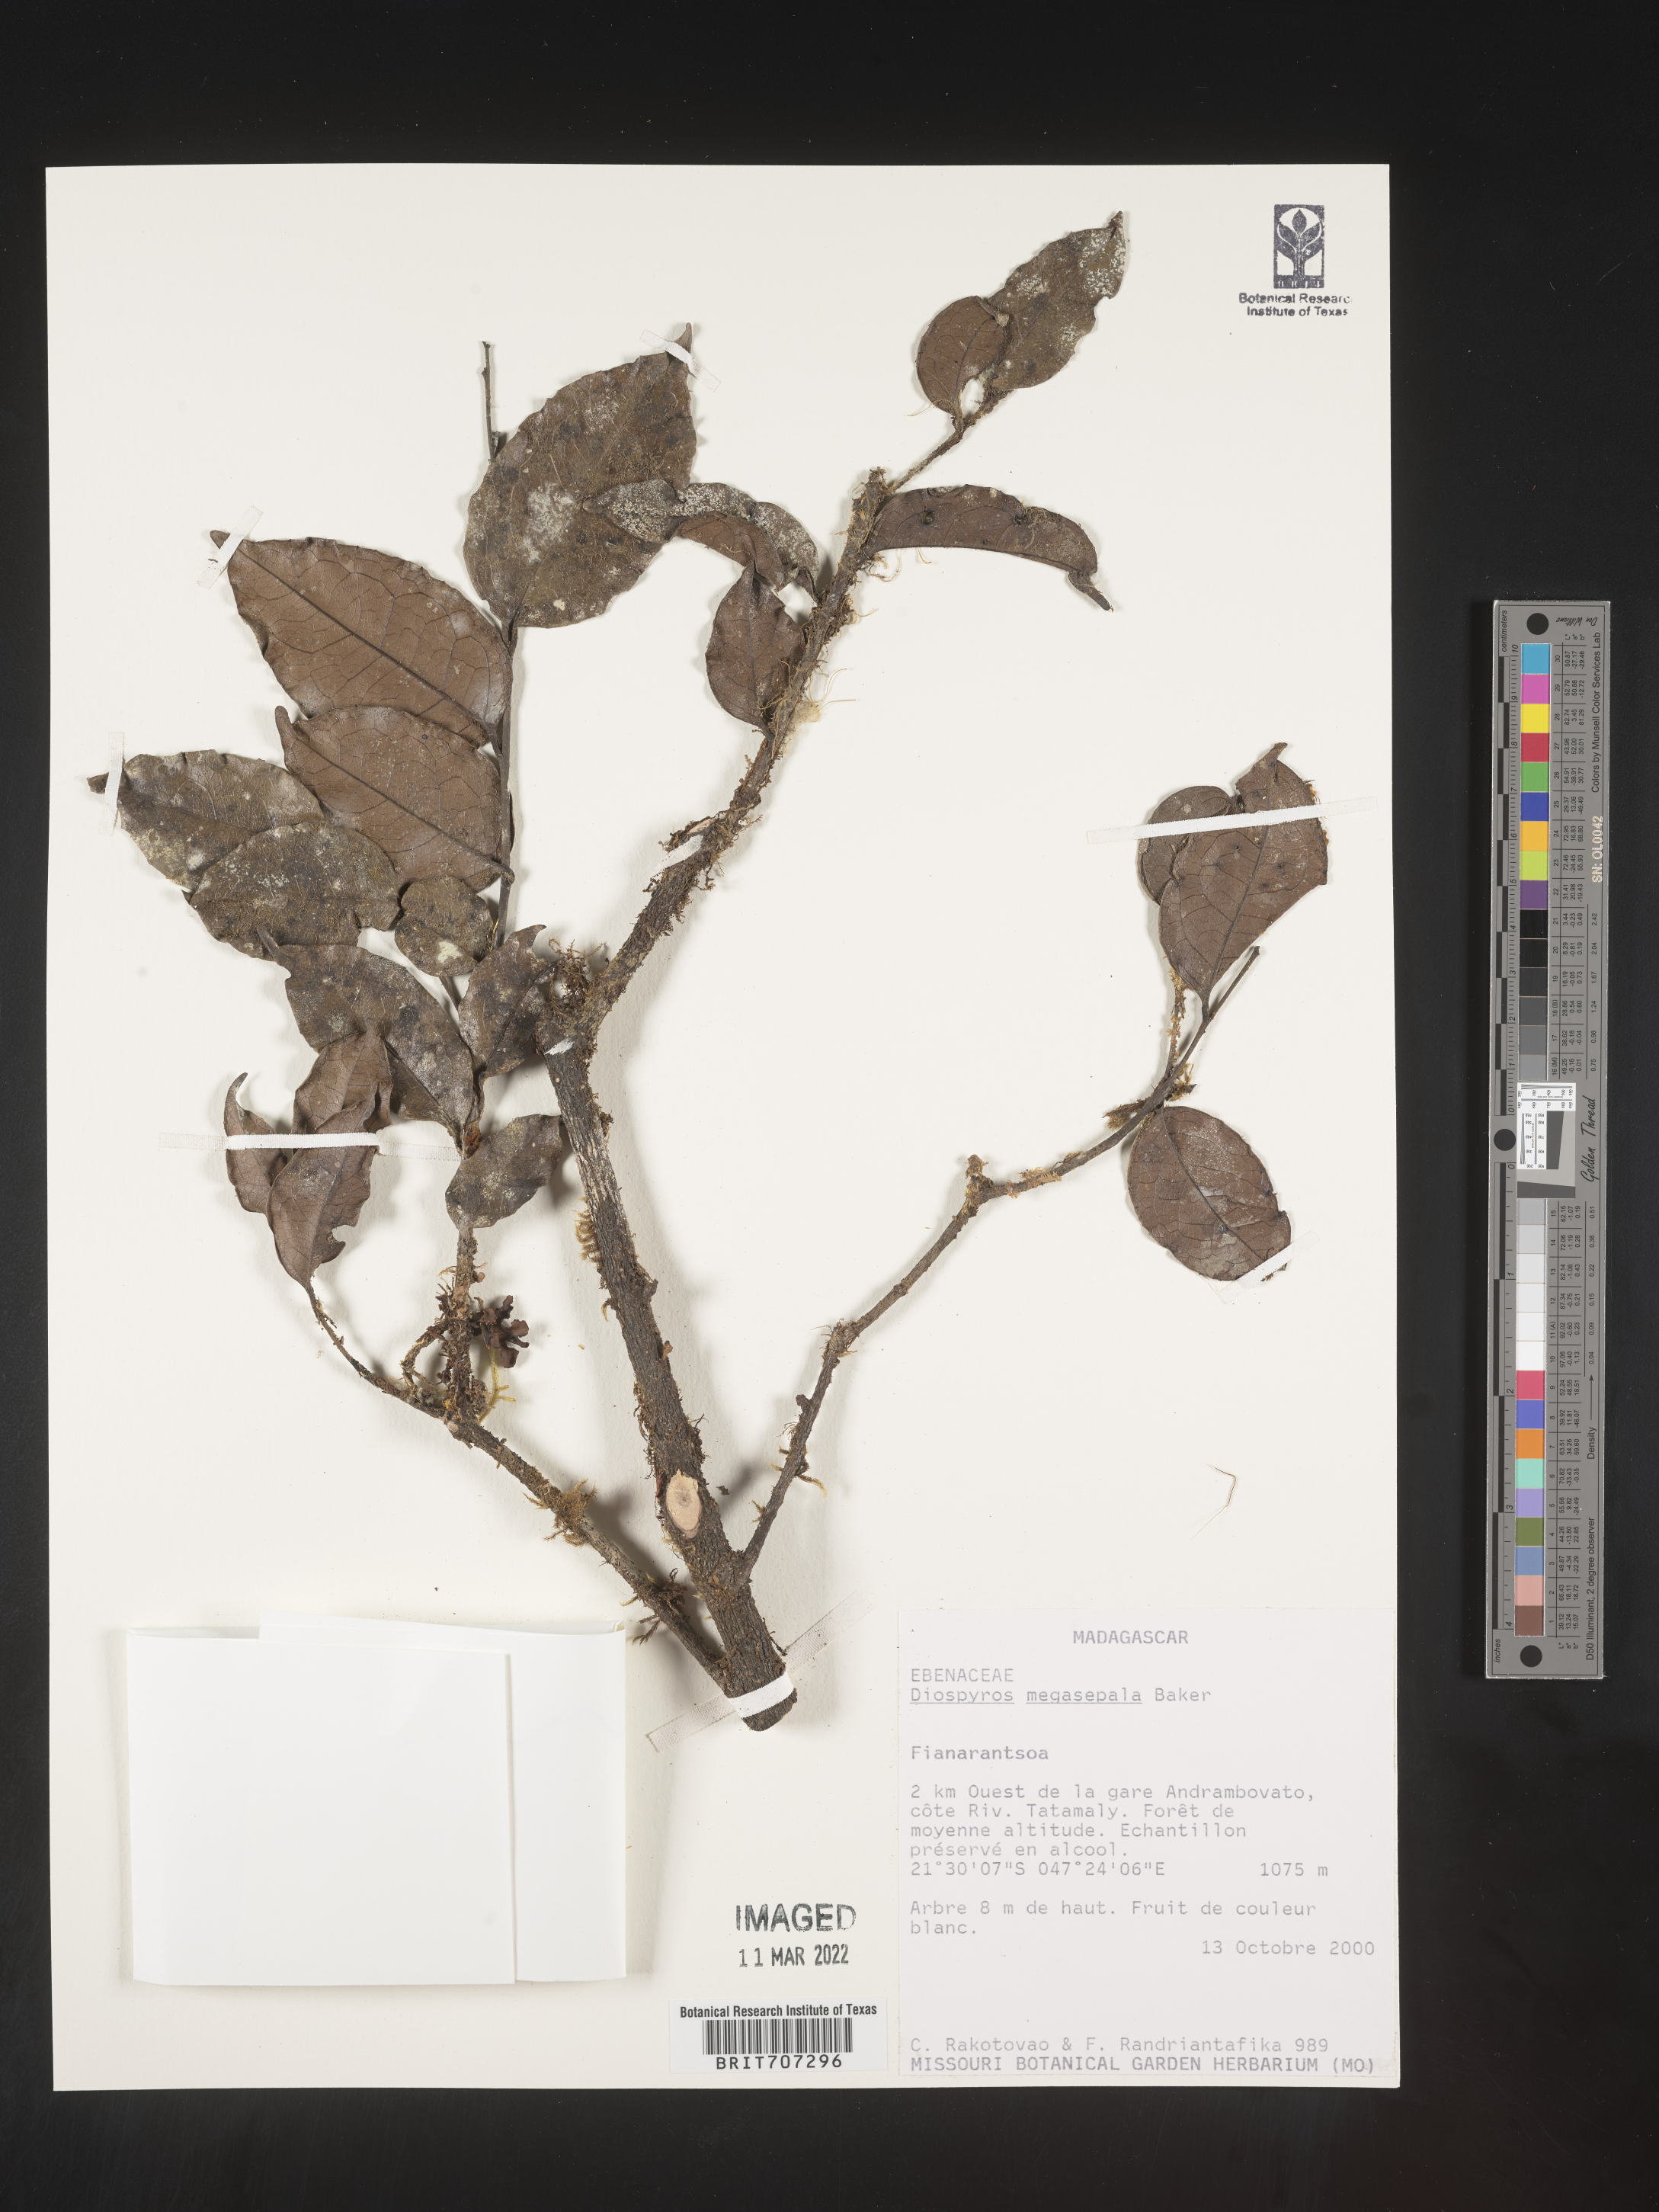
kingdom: Plantae
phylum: Tracheophyta
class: Magnoliopsida
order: Ericales
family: Ebenaceae
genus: Diospyros
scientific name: Diospyros
